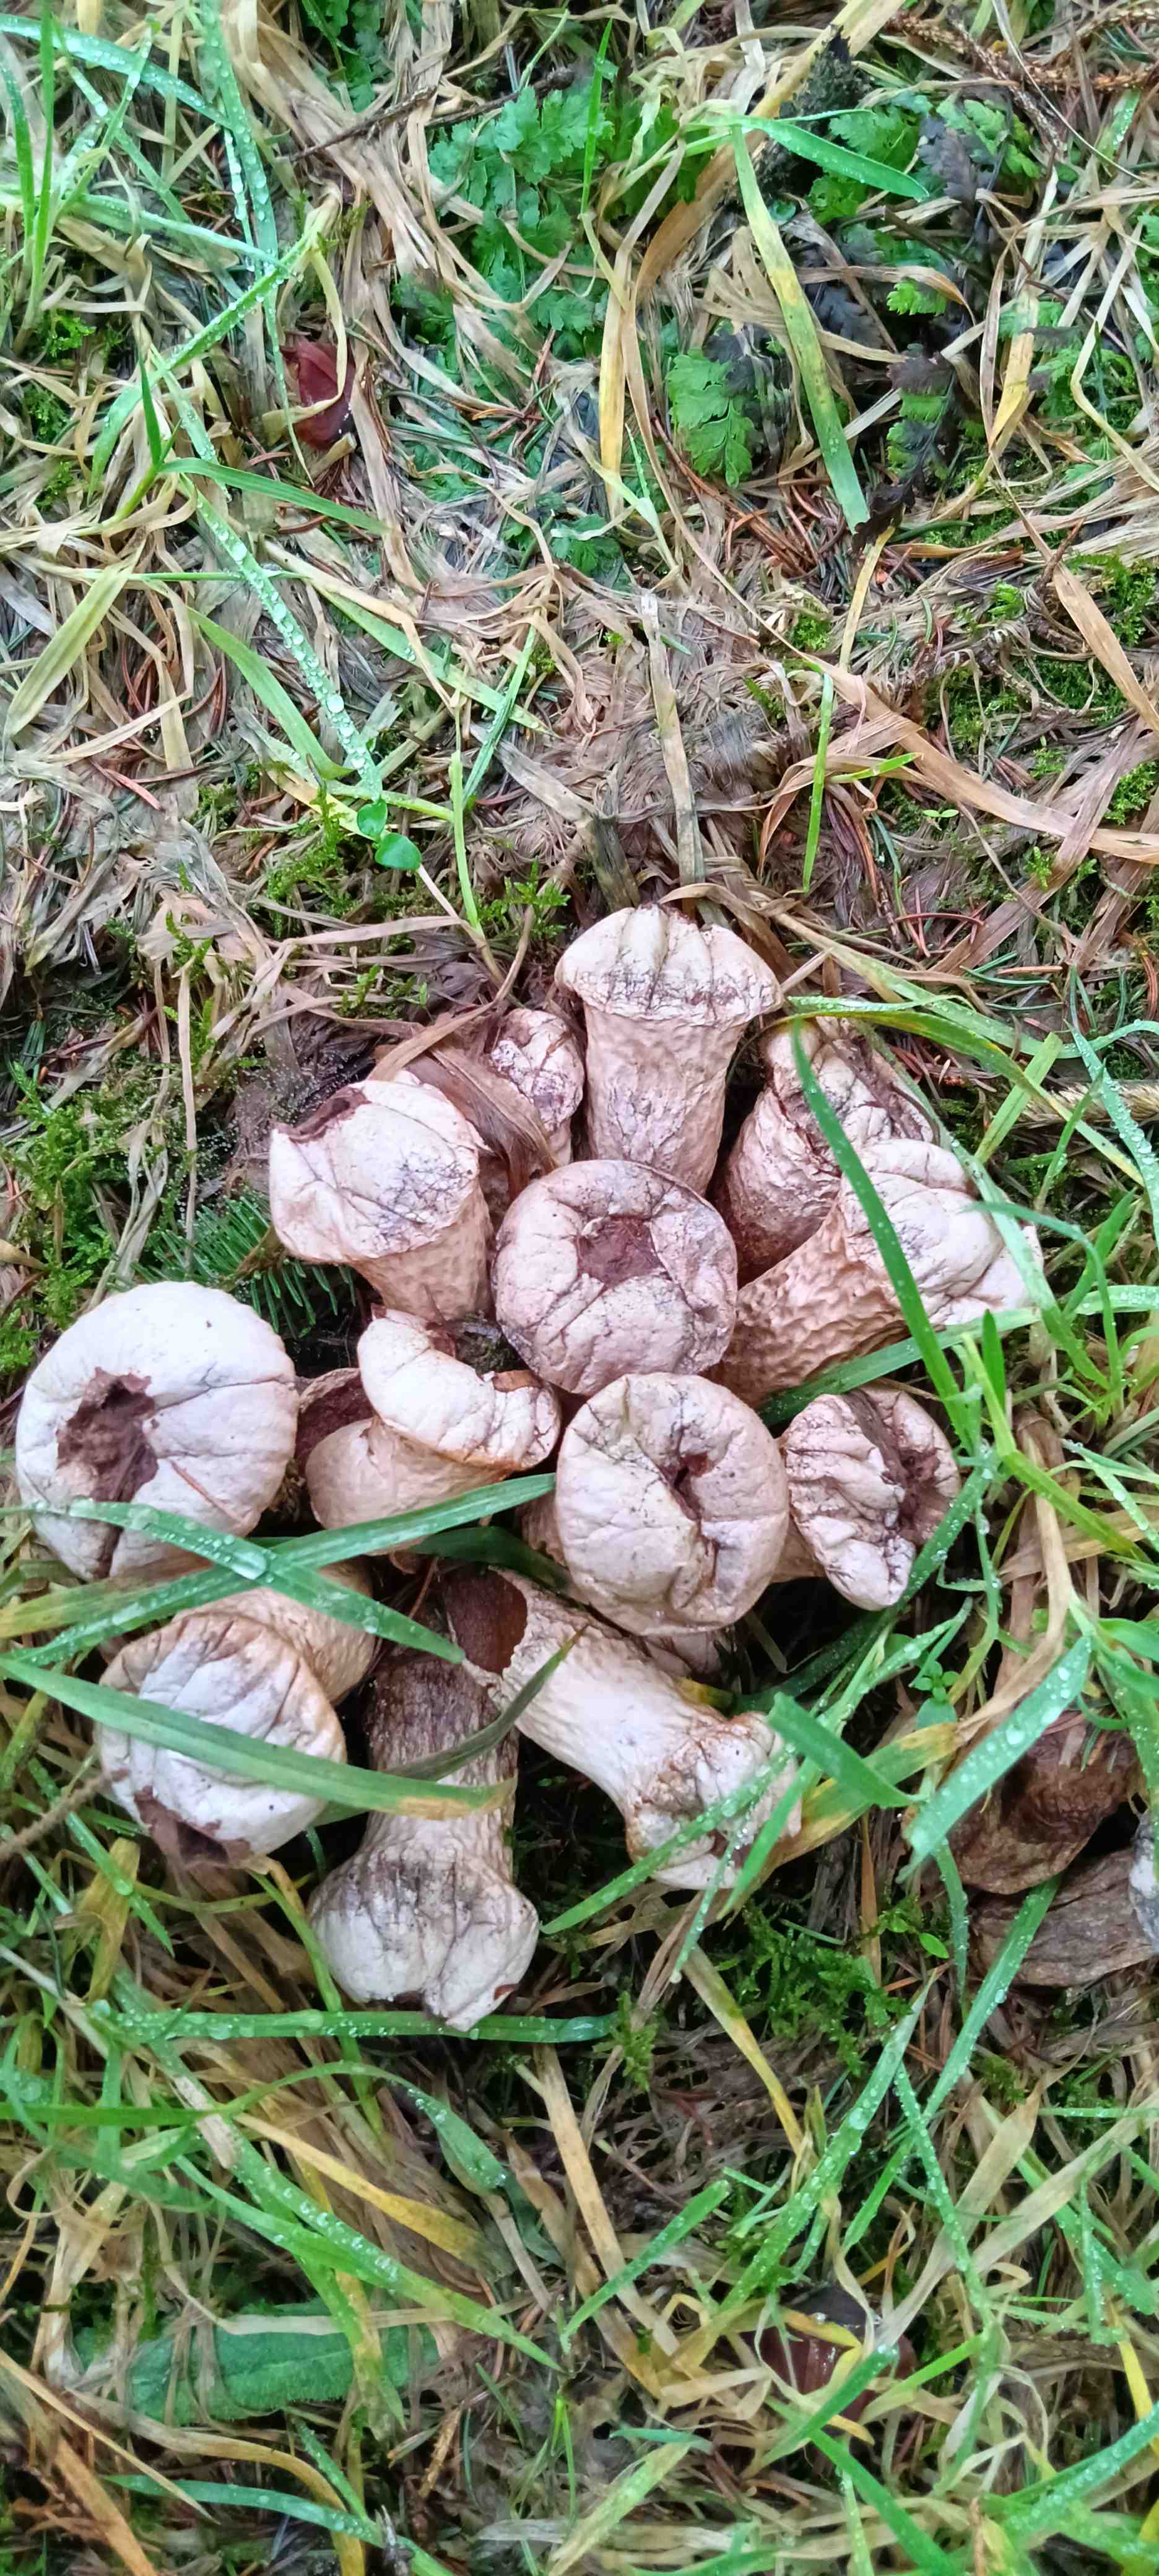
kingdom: Fungi
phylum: Basidiomycota
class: Agaricomycetes
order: Agaricales
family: Lycoperdaceae
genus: Lycoperdon
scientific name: Lycoperdon perlatum
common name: krystal-støvbold
